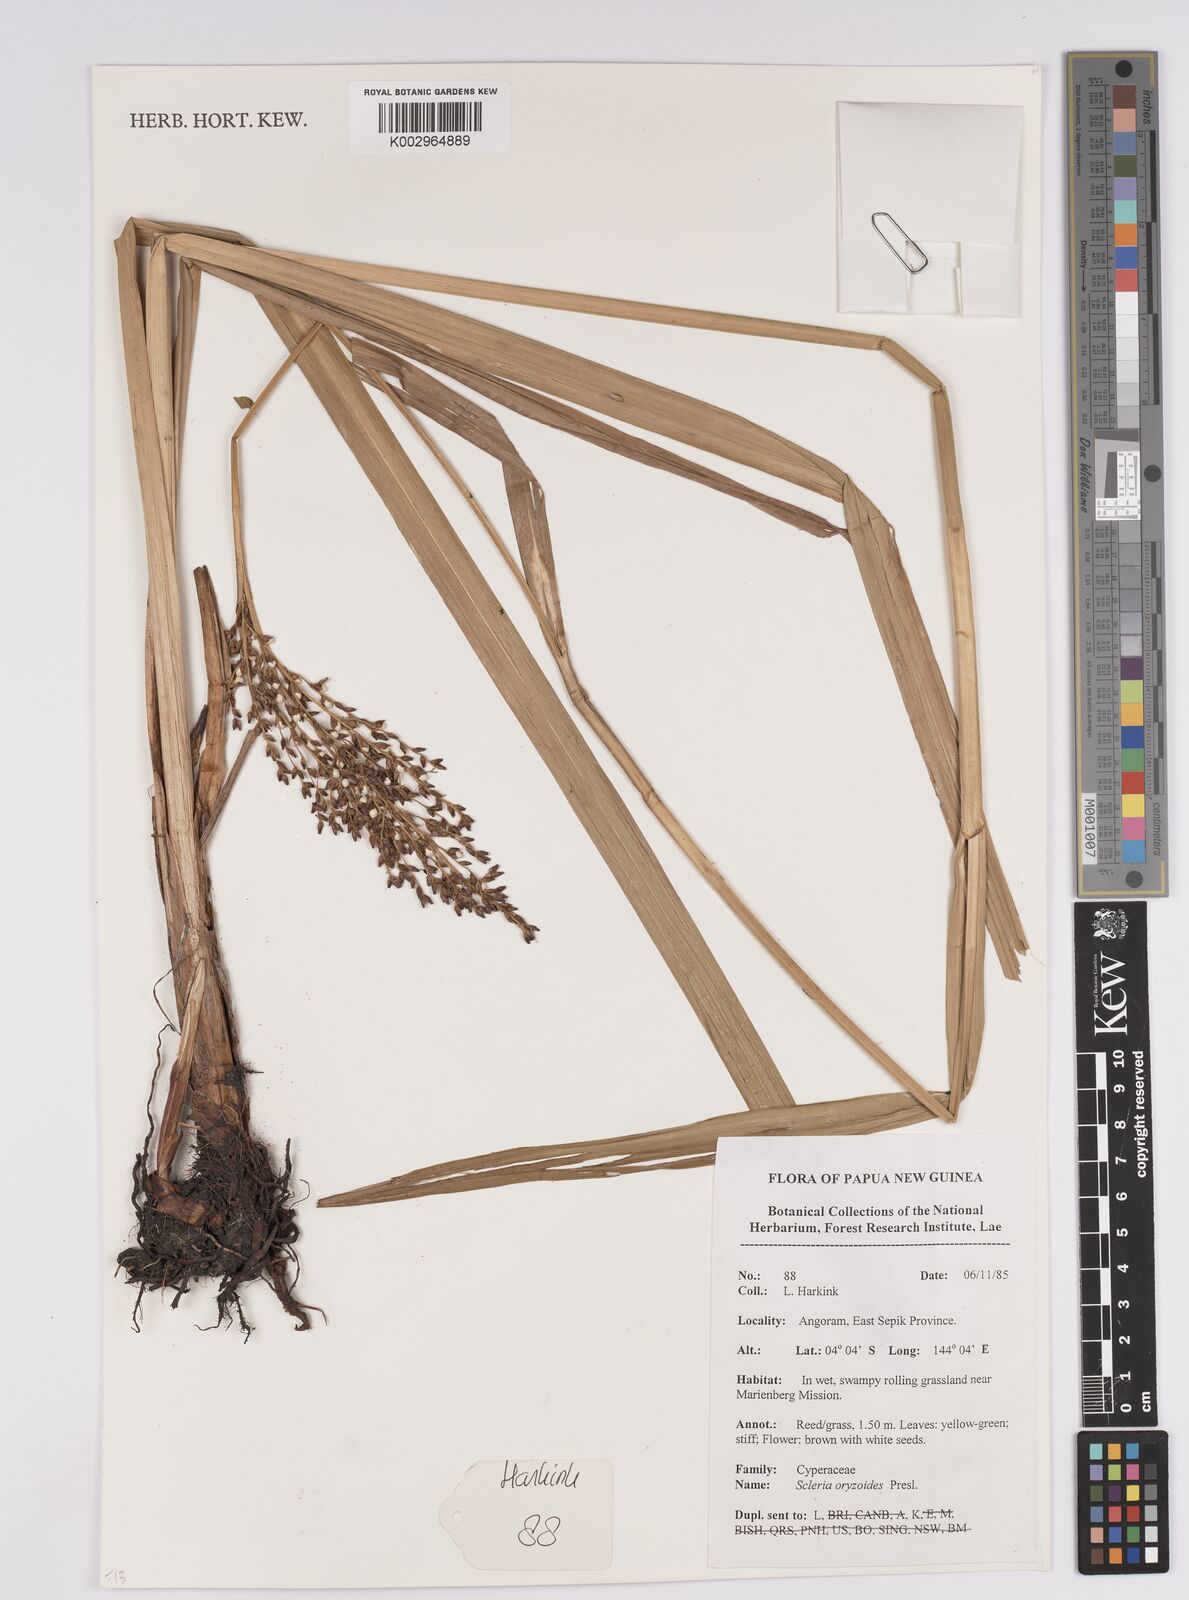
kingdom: Plantae
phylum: Tracheophyta
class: Liliopsida
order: Poales
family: Cyperaceae
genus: Scleria
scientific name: Scleria poiformis
